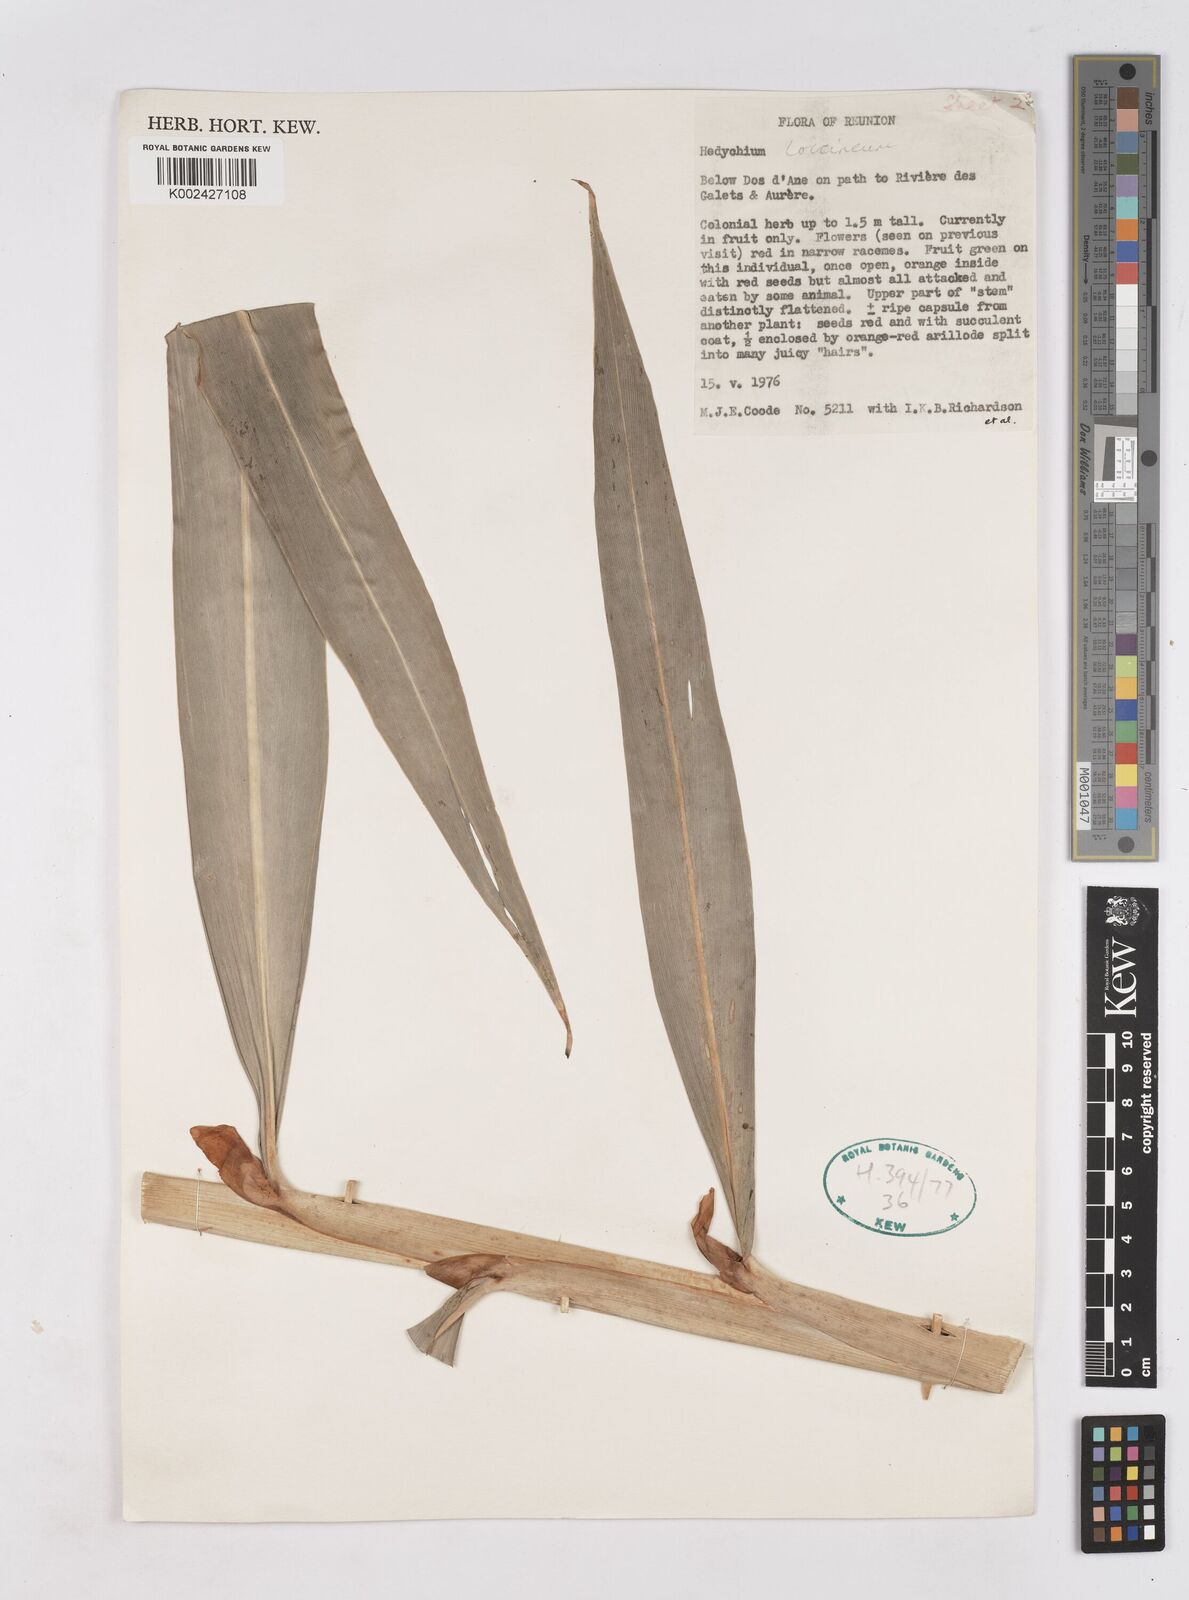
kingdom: Plantae
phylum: Tracheophyta
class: Liliopsida
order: Zingiberales
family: Zingiberaceae
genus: Hedychium
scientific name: Hedychium coccineum
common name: Red ginger-lily
